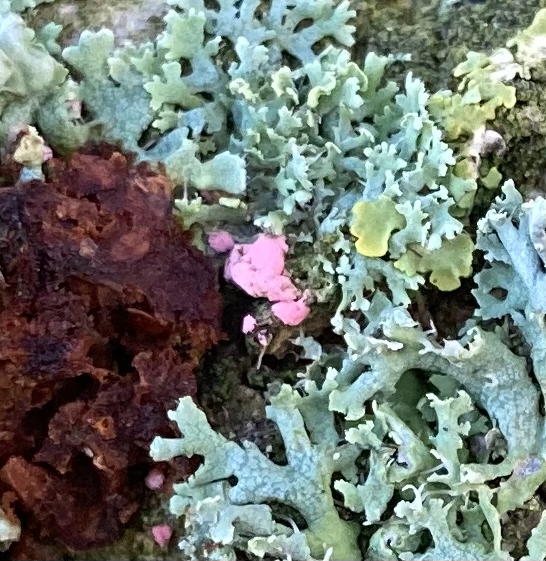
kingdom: Fungi
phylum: Ascomycota
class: Sordariomycetes
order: Hypocreales
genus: Illosporiopsis
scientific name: Illosporiopsis christiansenii
